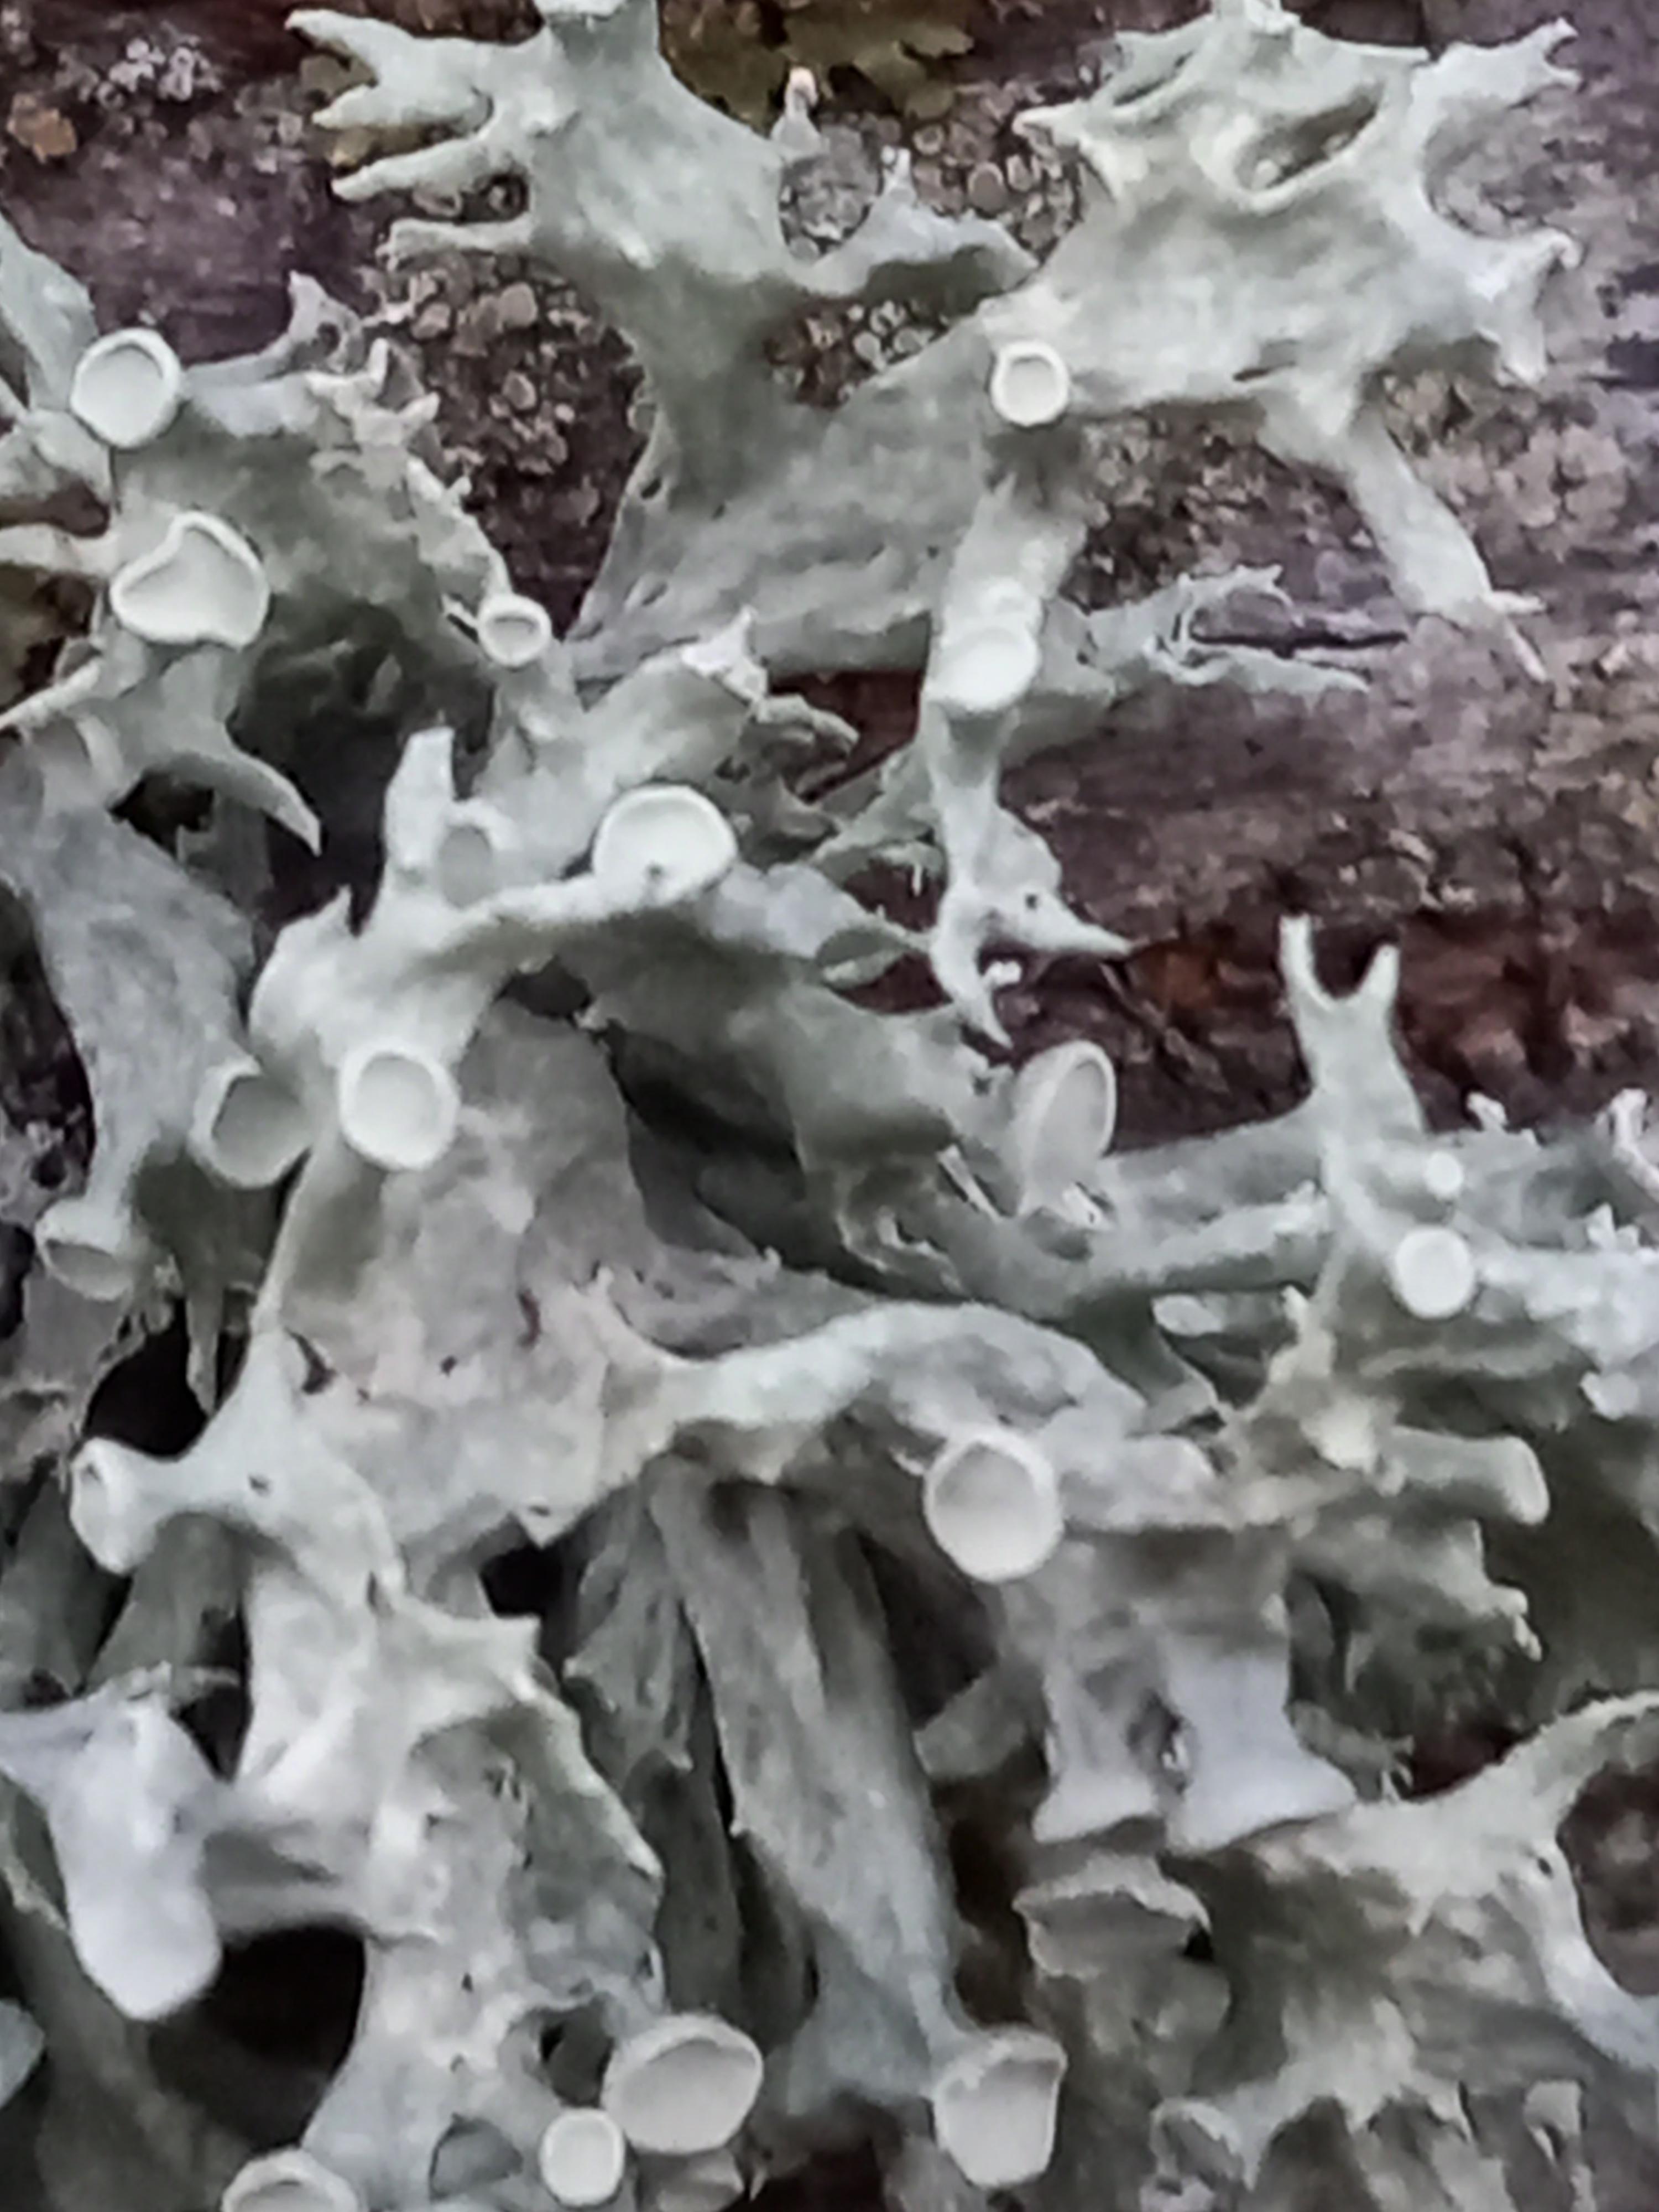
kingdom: Fungi
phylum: Ascomycota
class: Lecanoromycetes
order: Lecanorales
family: Ramalinaceae
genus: Ramalina
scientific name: Ramalina fastigiata
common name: tue-grenlav
